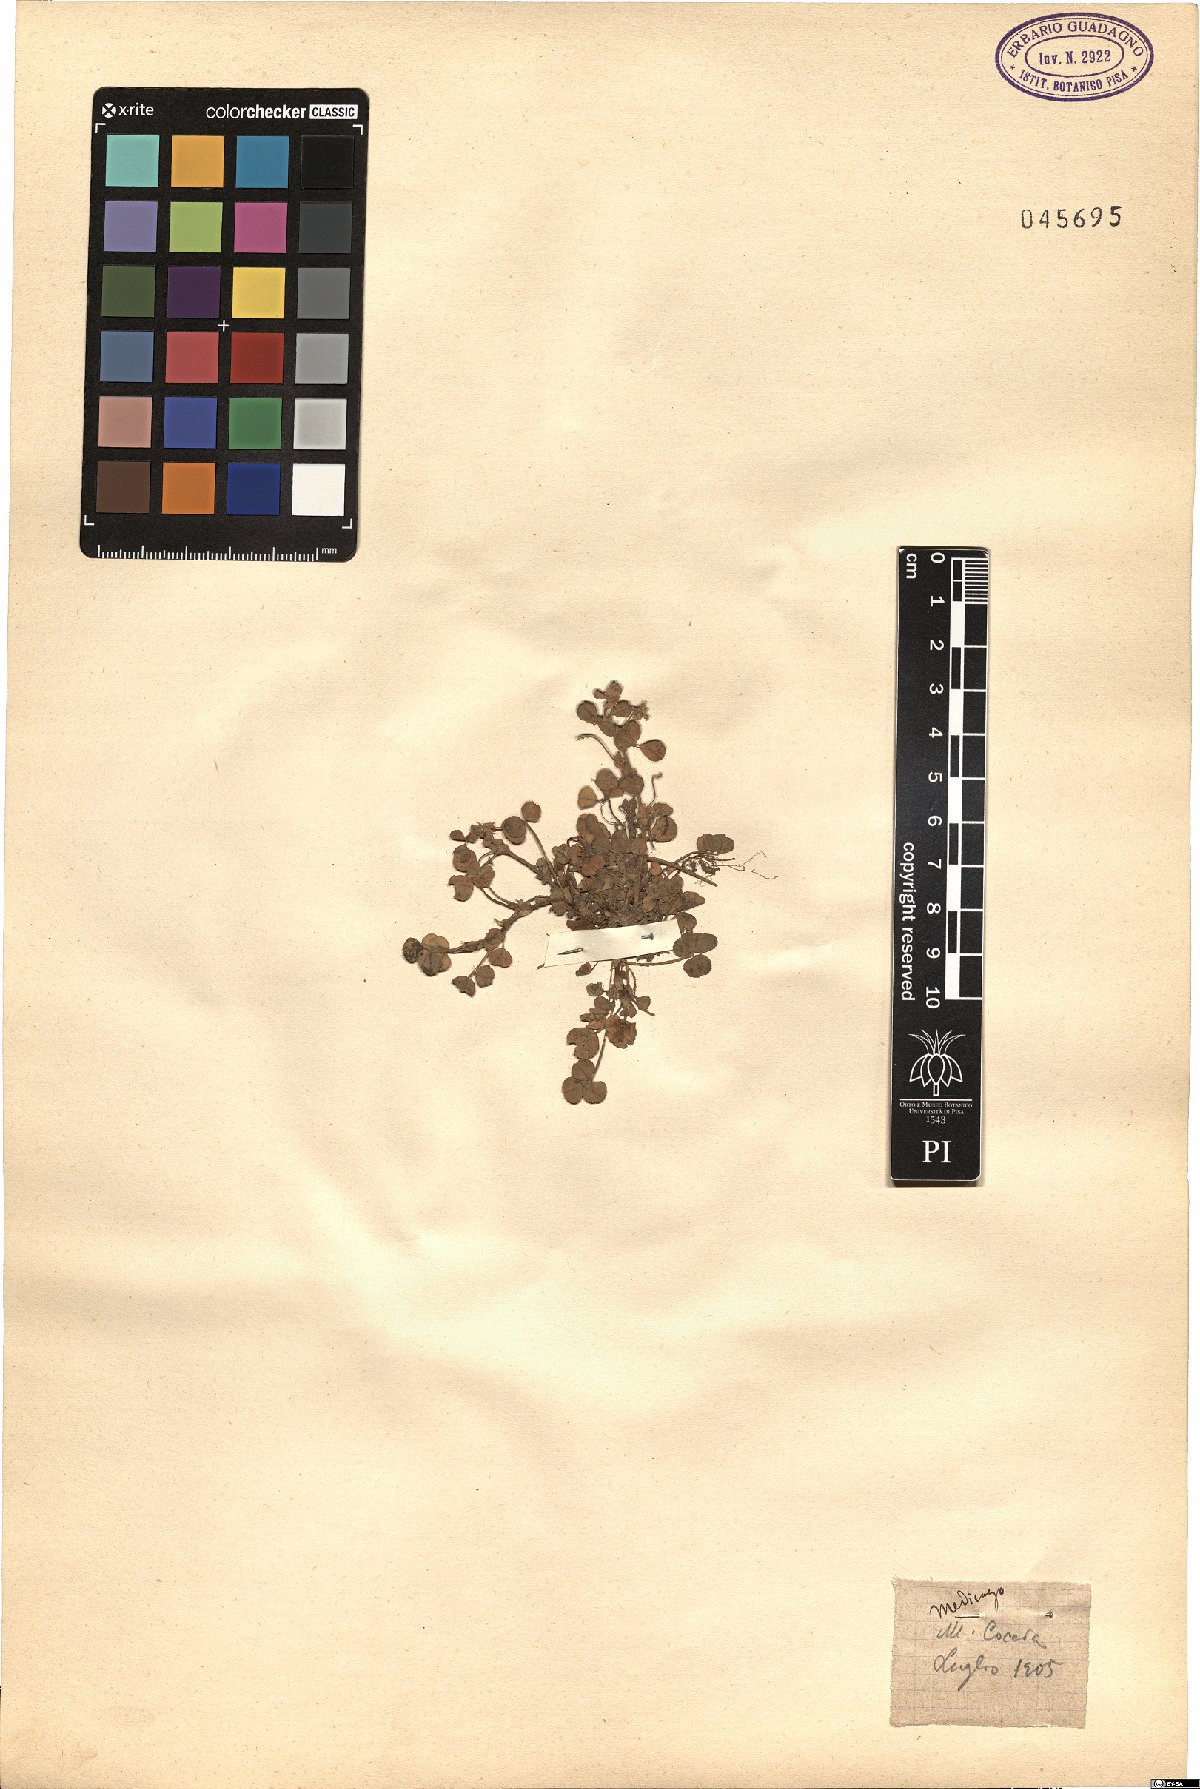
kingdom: Plantae
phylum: Tracheophyta
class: Magnoliopsida
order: Fabales
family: Fabaceae
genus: Medicago
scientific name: Medicago
